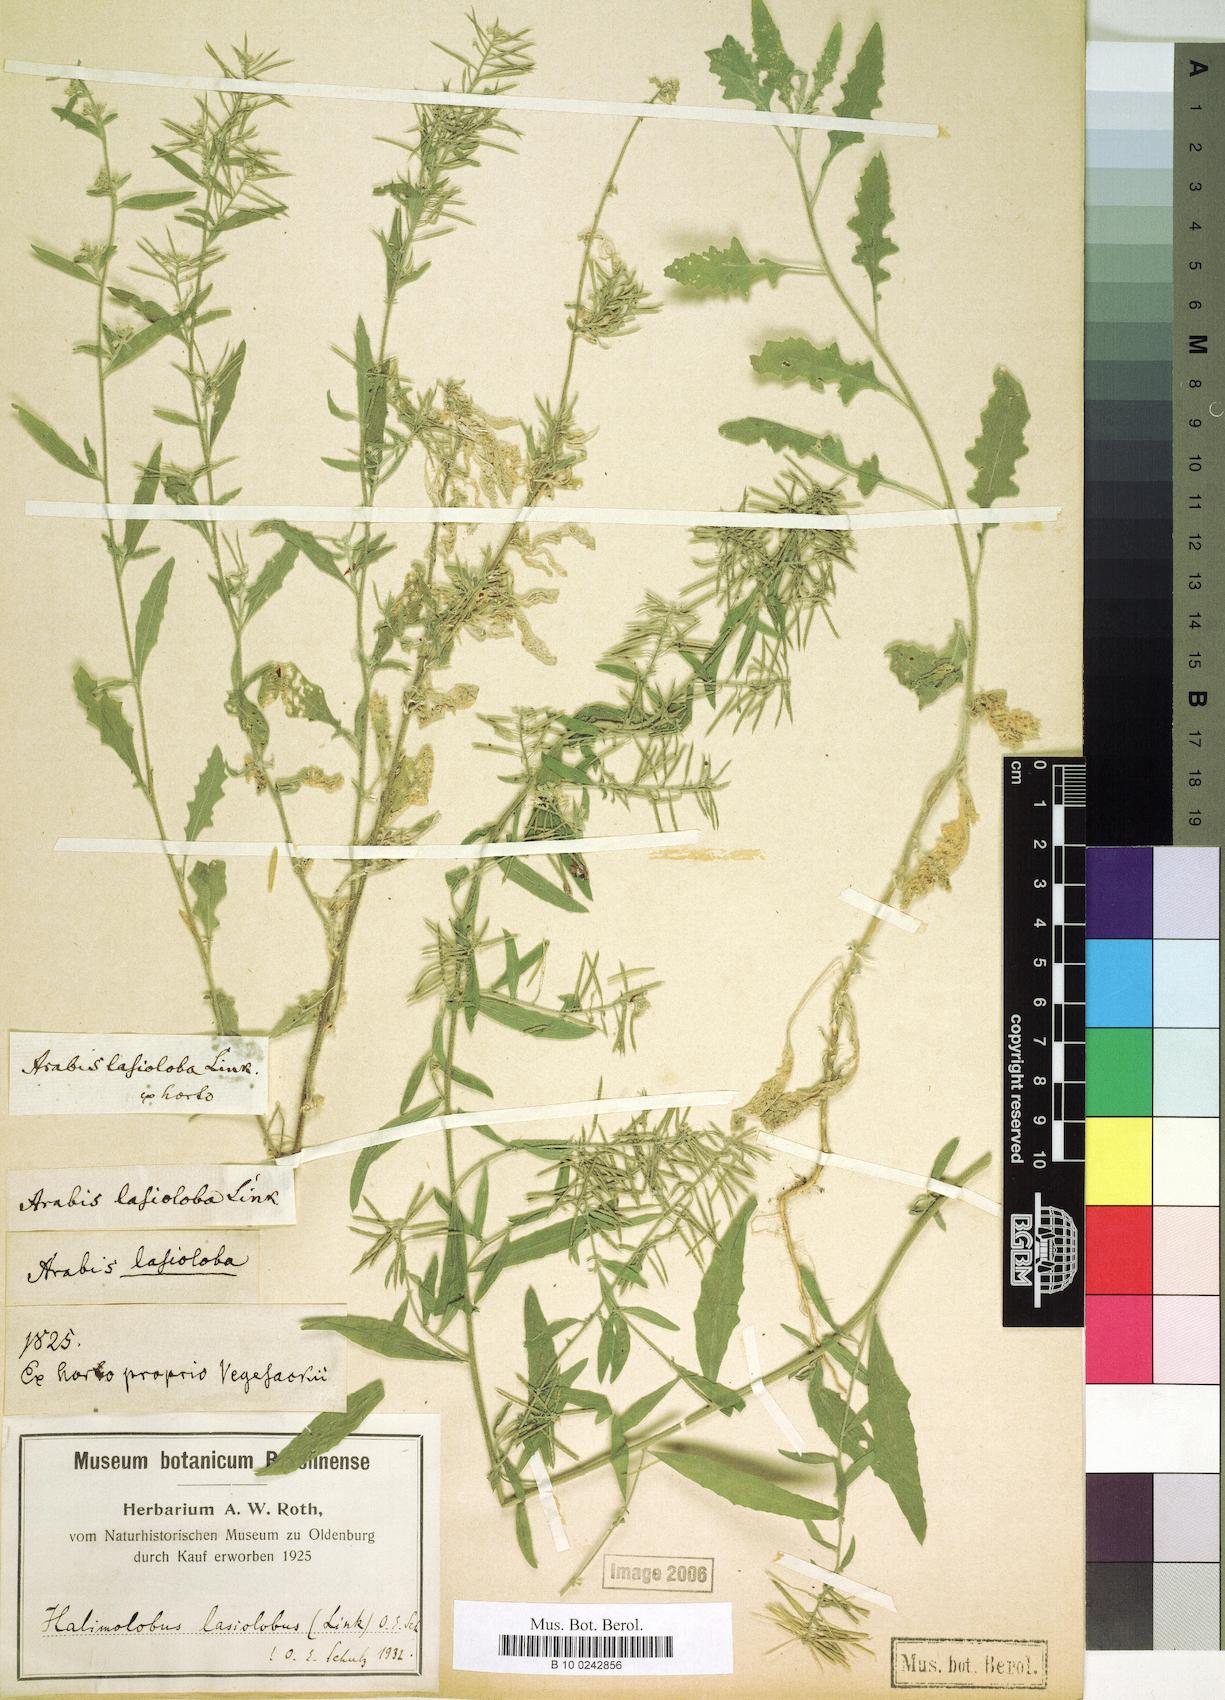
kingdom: Plantae
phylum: Tracheophyta
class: Magnoliopsida
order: Brassicales
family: Brassicaceae
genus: Halimolobos
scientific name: Halimolobos lasiolobus
